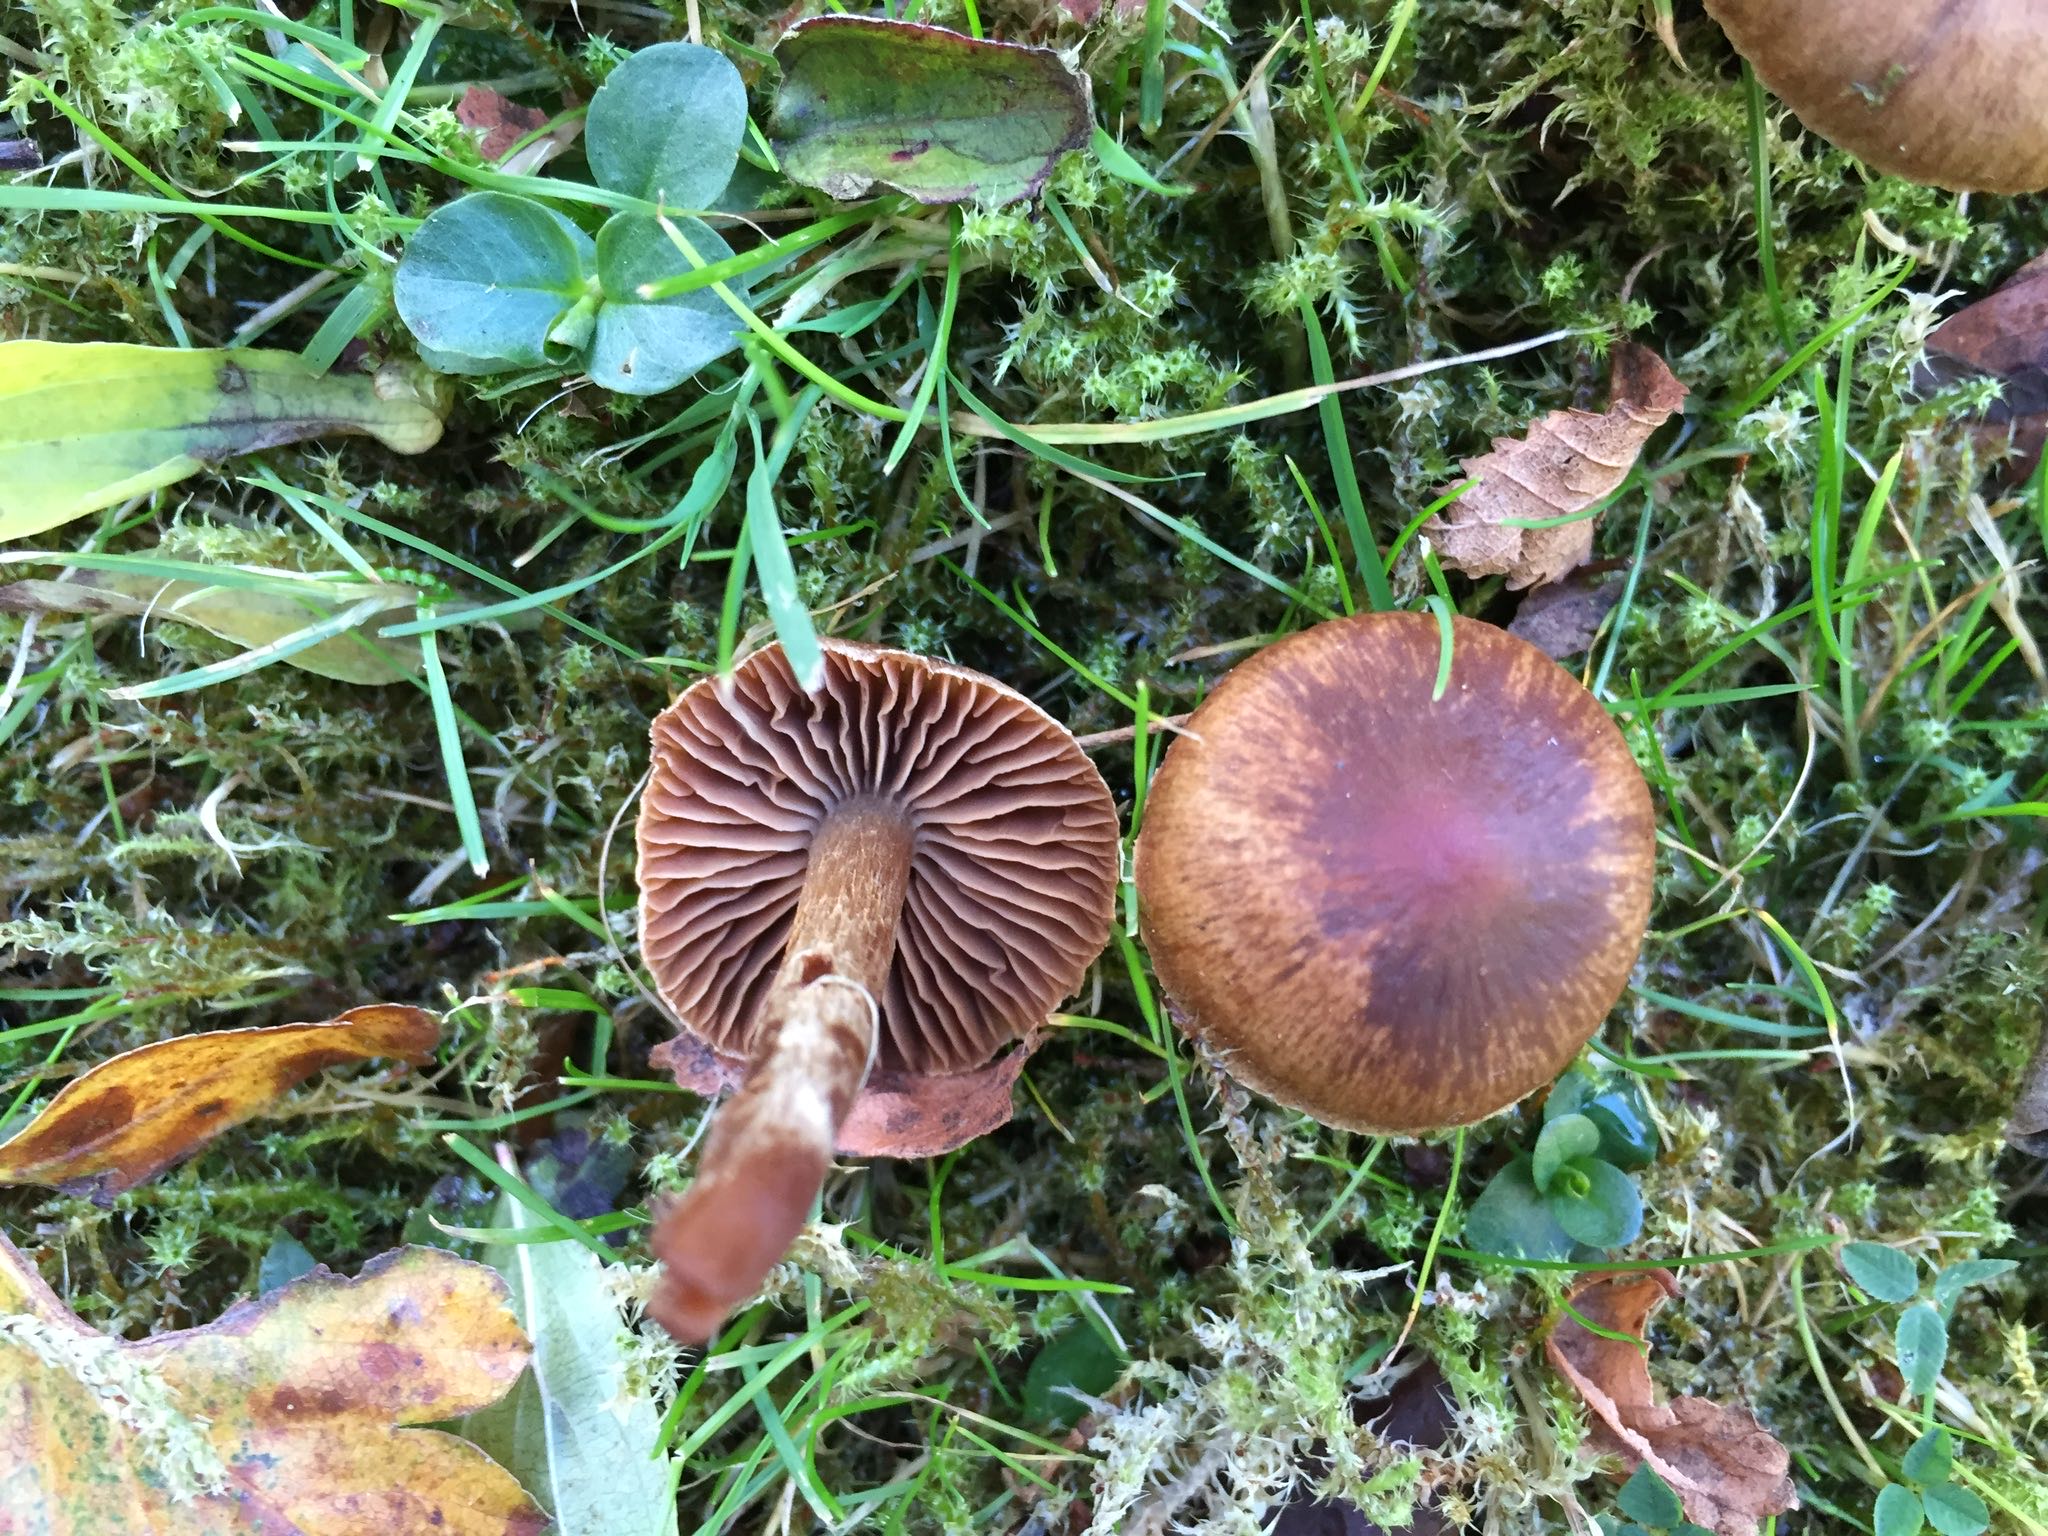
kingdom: Fungi
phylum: Basidiomycota
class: Agaricomycetes
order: Agaricales
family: Cortinariaceae
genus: Cortinarius
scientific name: Cortinarius
